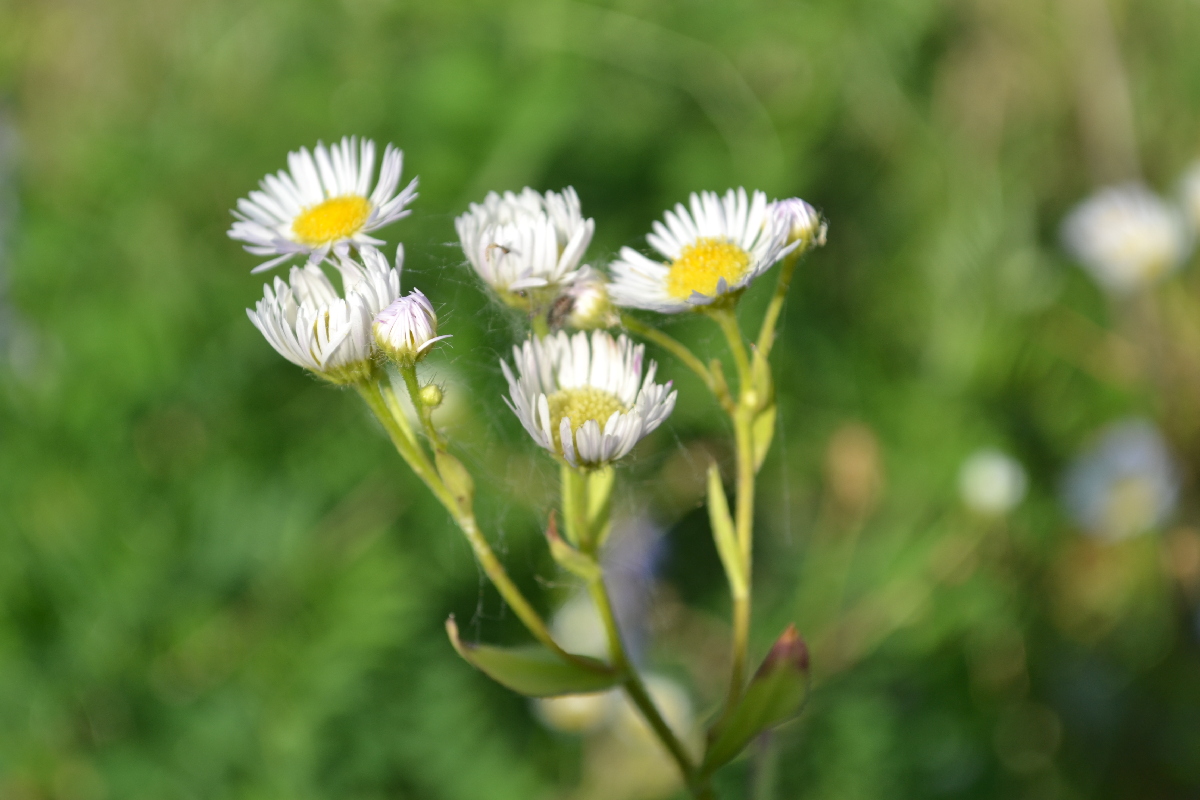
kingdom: Plantae
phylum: Tracheophyta
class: Magnoliopsida
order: Asterales
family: Asteraceae
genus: Erigeron
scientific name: Erigeron annuus
